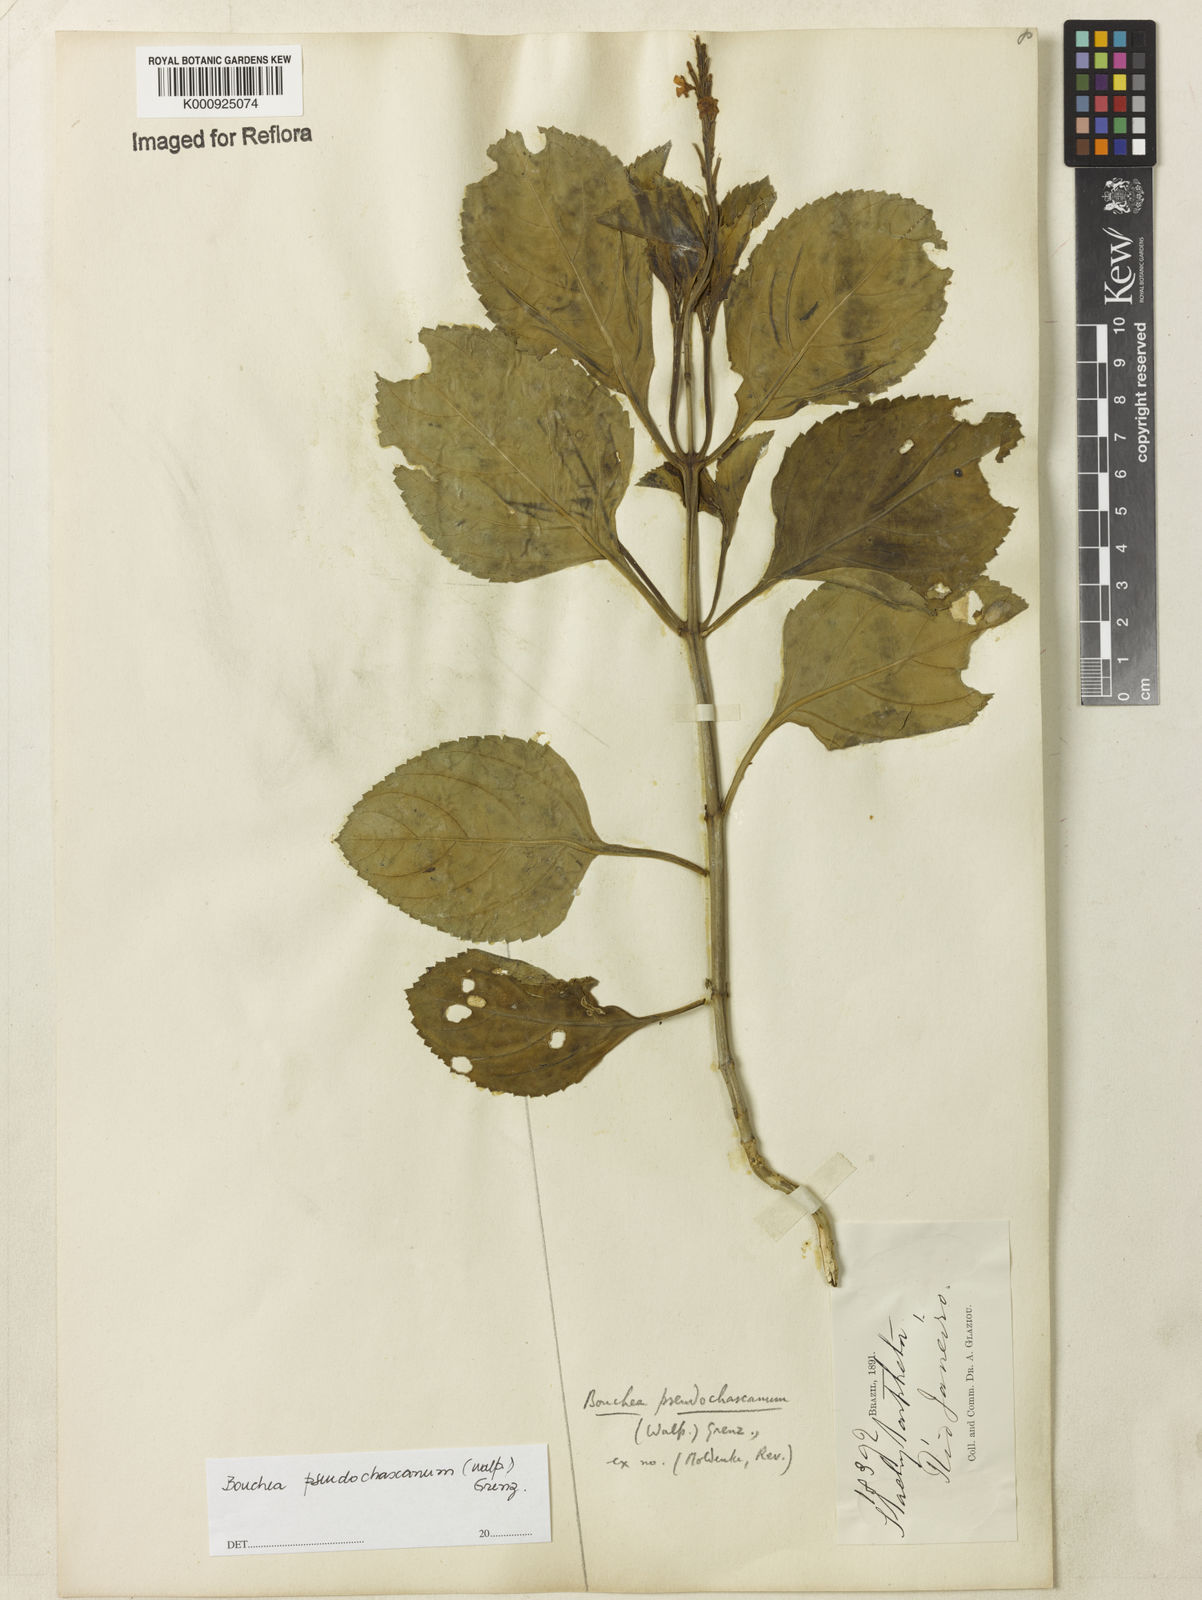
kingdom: Plantae
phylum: Tracheophyta
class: Magnoliopsida
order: Lamiales
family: Verbenaceae
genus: Bouchea
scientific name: Bouchea pseudochascanum
